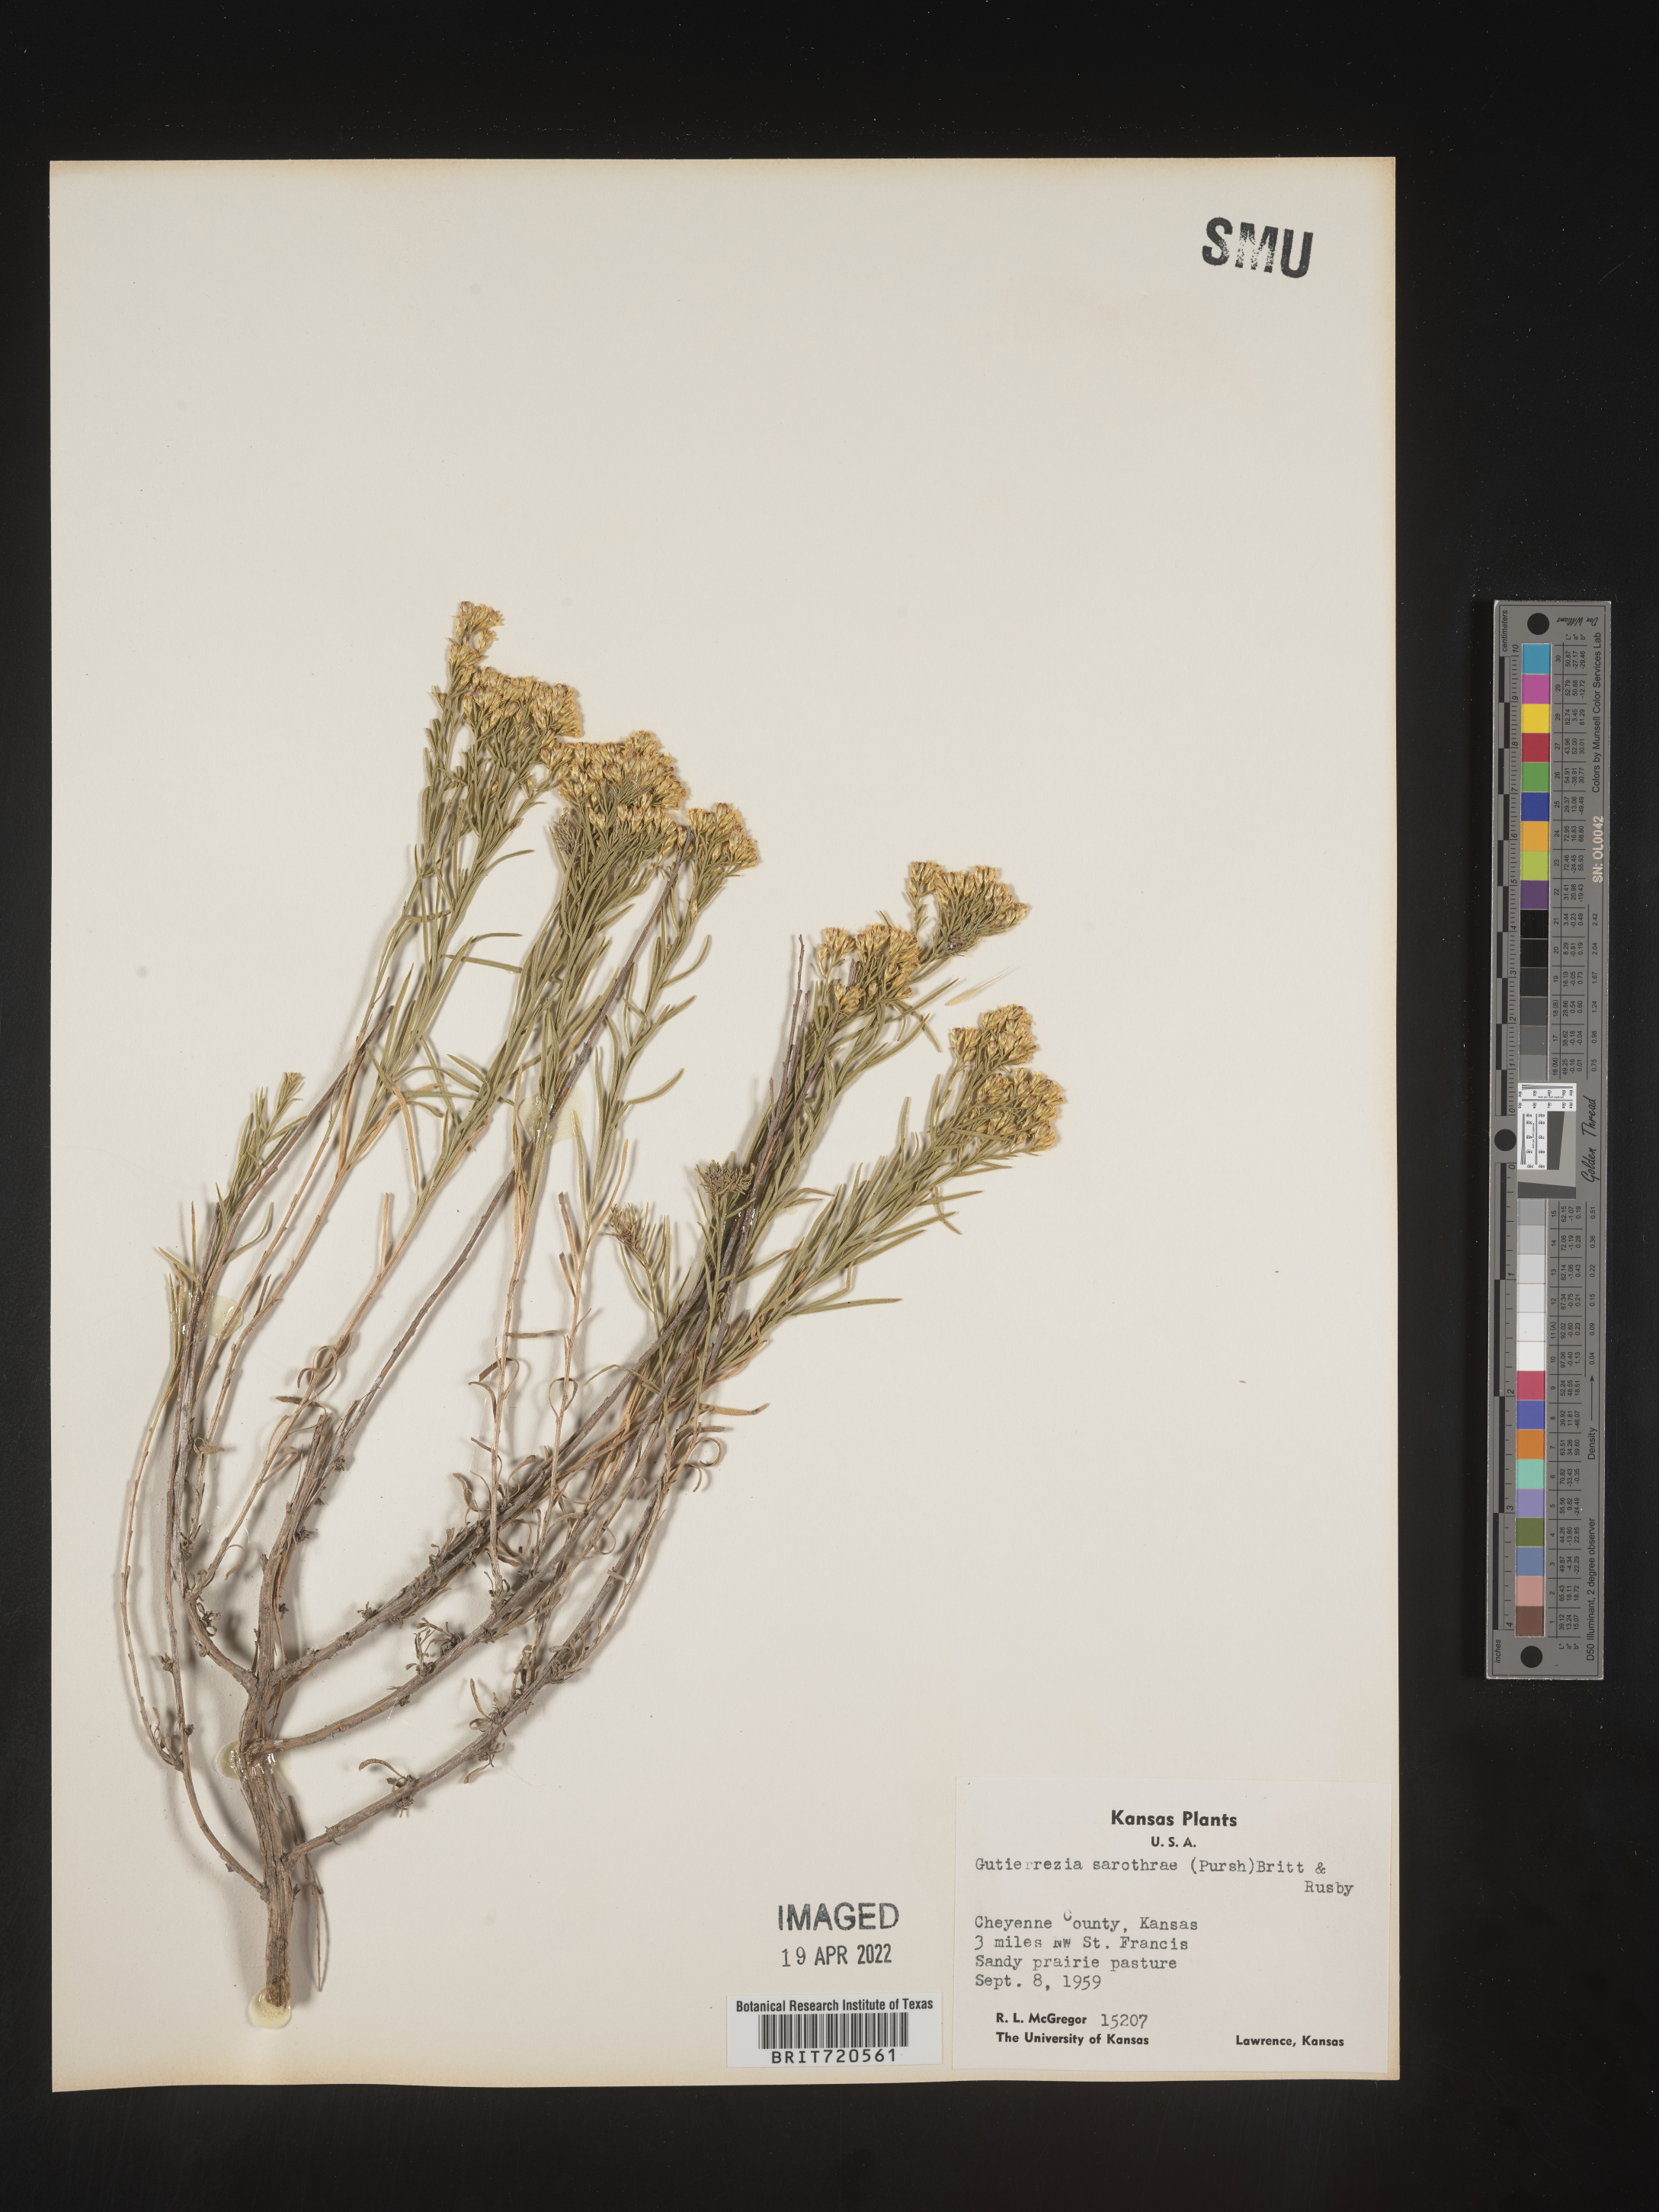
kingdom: Plantae
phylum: Tracheophyta
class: Magnoliopsida
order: Asterales
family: Asteraceae
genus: Gutierrezia
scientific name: Gutierrezia sarothrae
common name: Broom snakeweed
